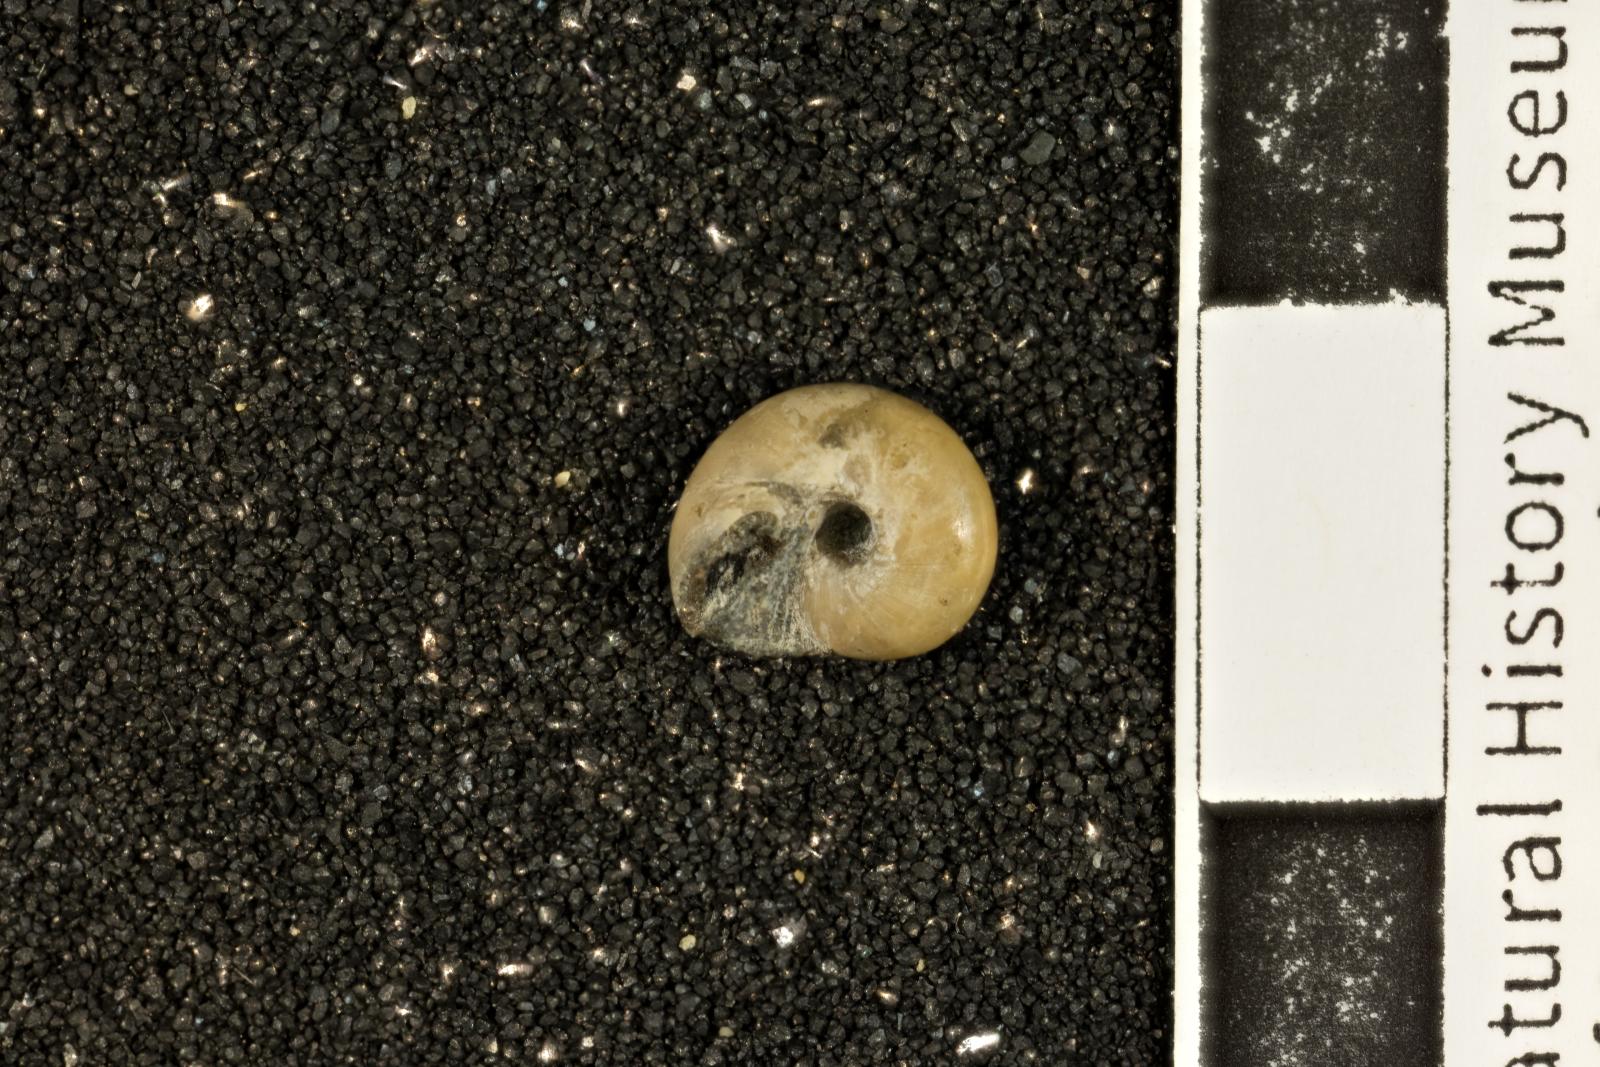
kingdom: Animalia
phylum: Mollusca
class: Gastropoda
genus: Antillocollonia
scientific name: Antillocollonia
